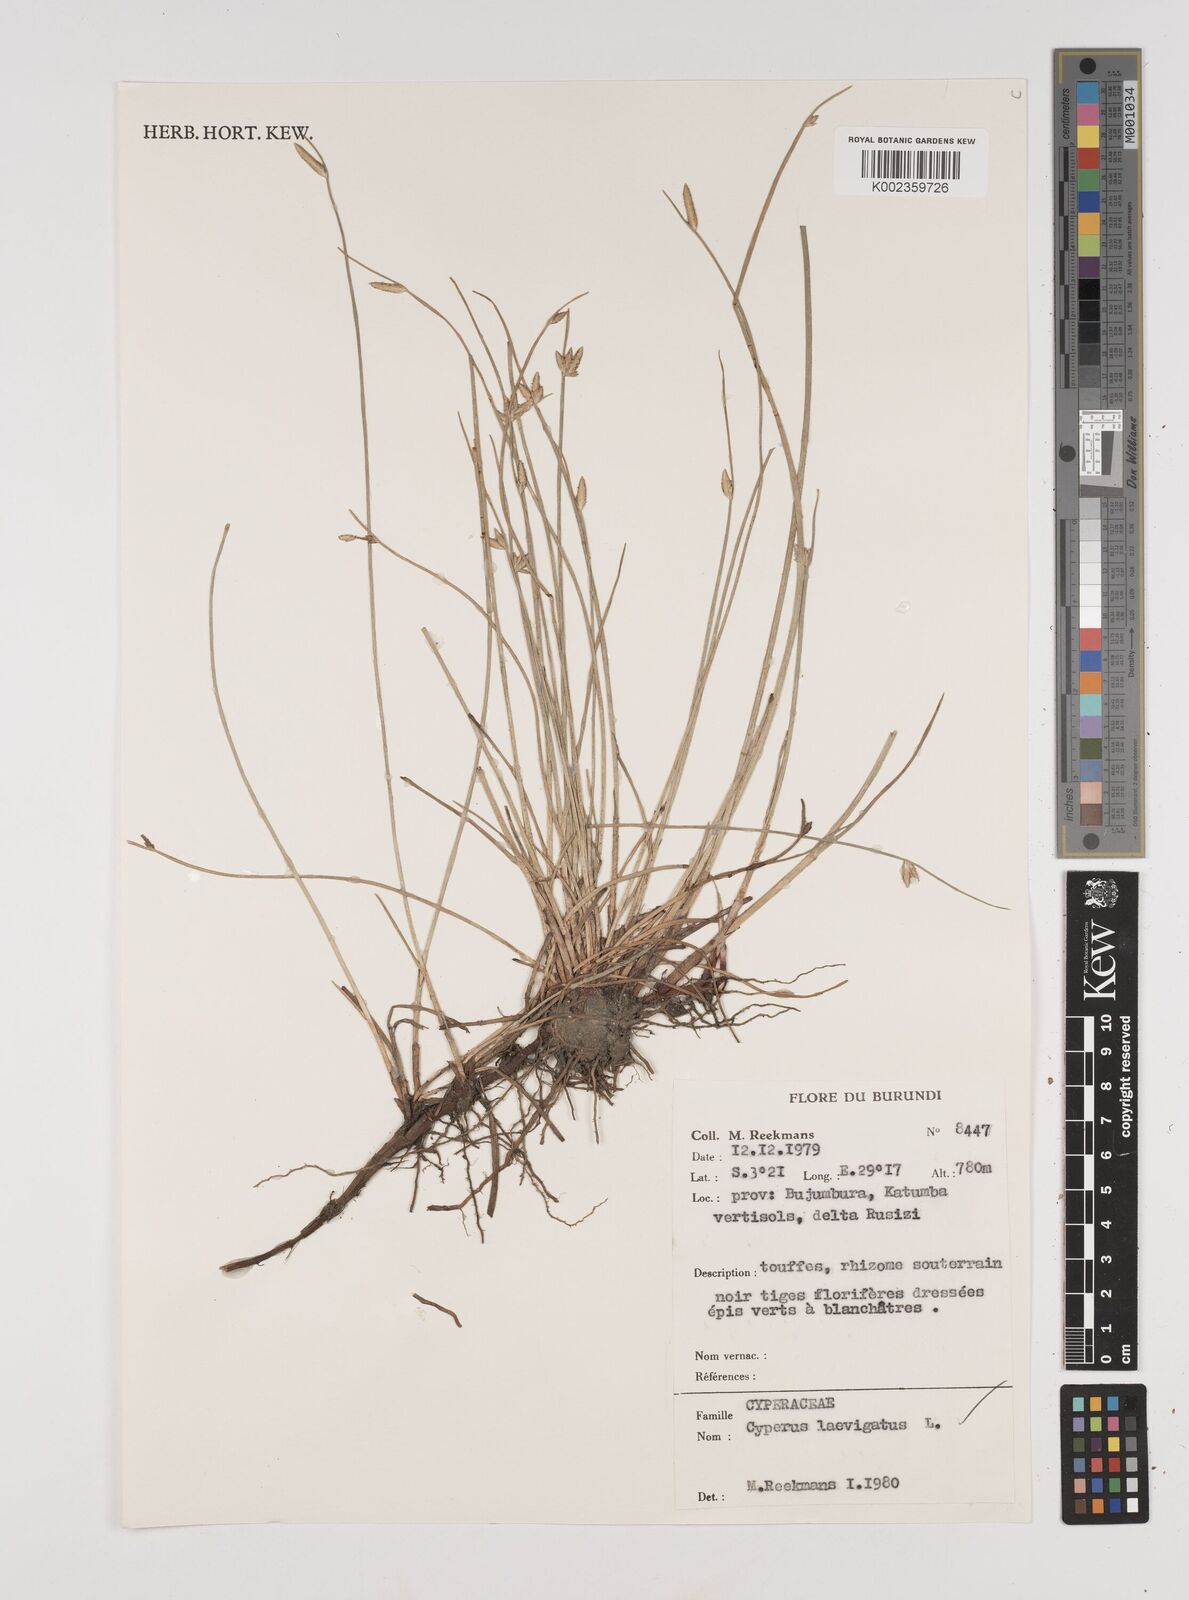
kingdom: Plantae
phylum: Tracheophyta
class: Liliopsida
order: Poales
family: Cyperaceae
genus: Cyperus
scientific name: Cyperus laevigatus
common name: Smooth flat sedge
